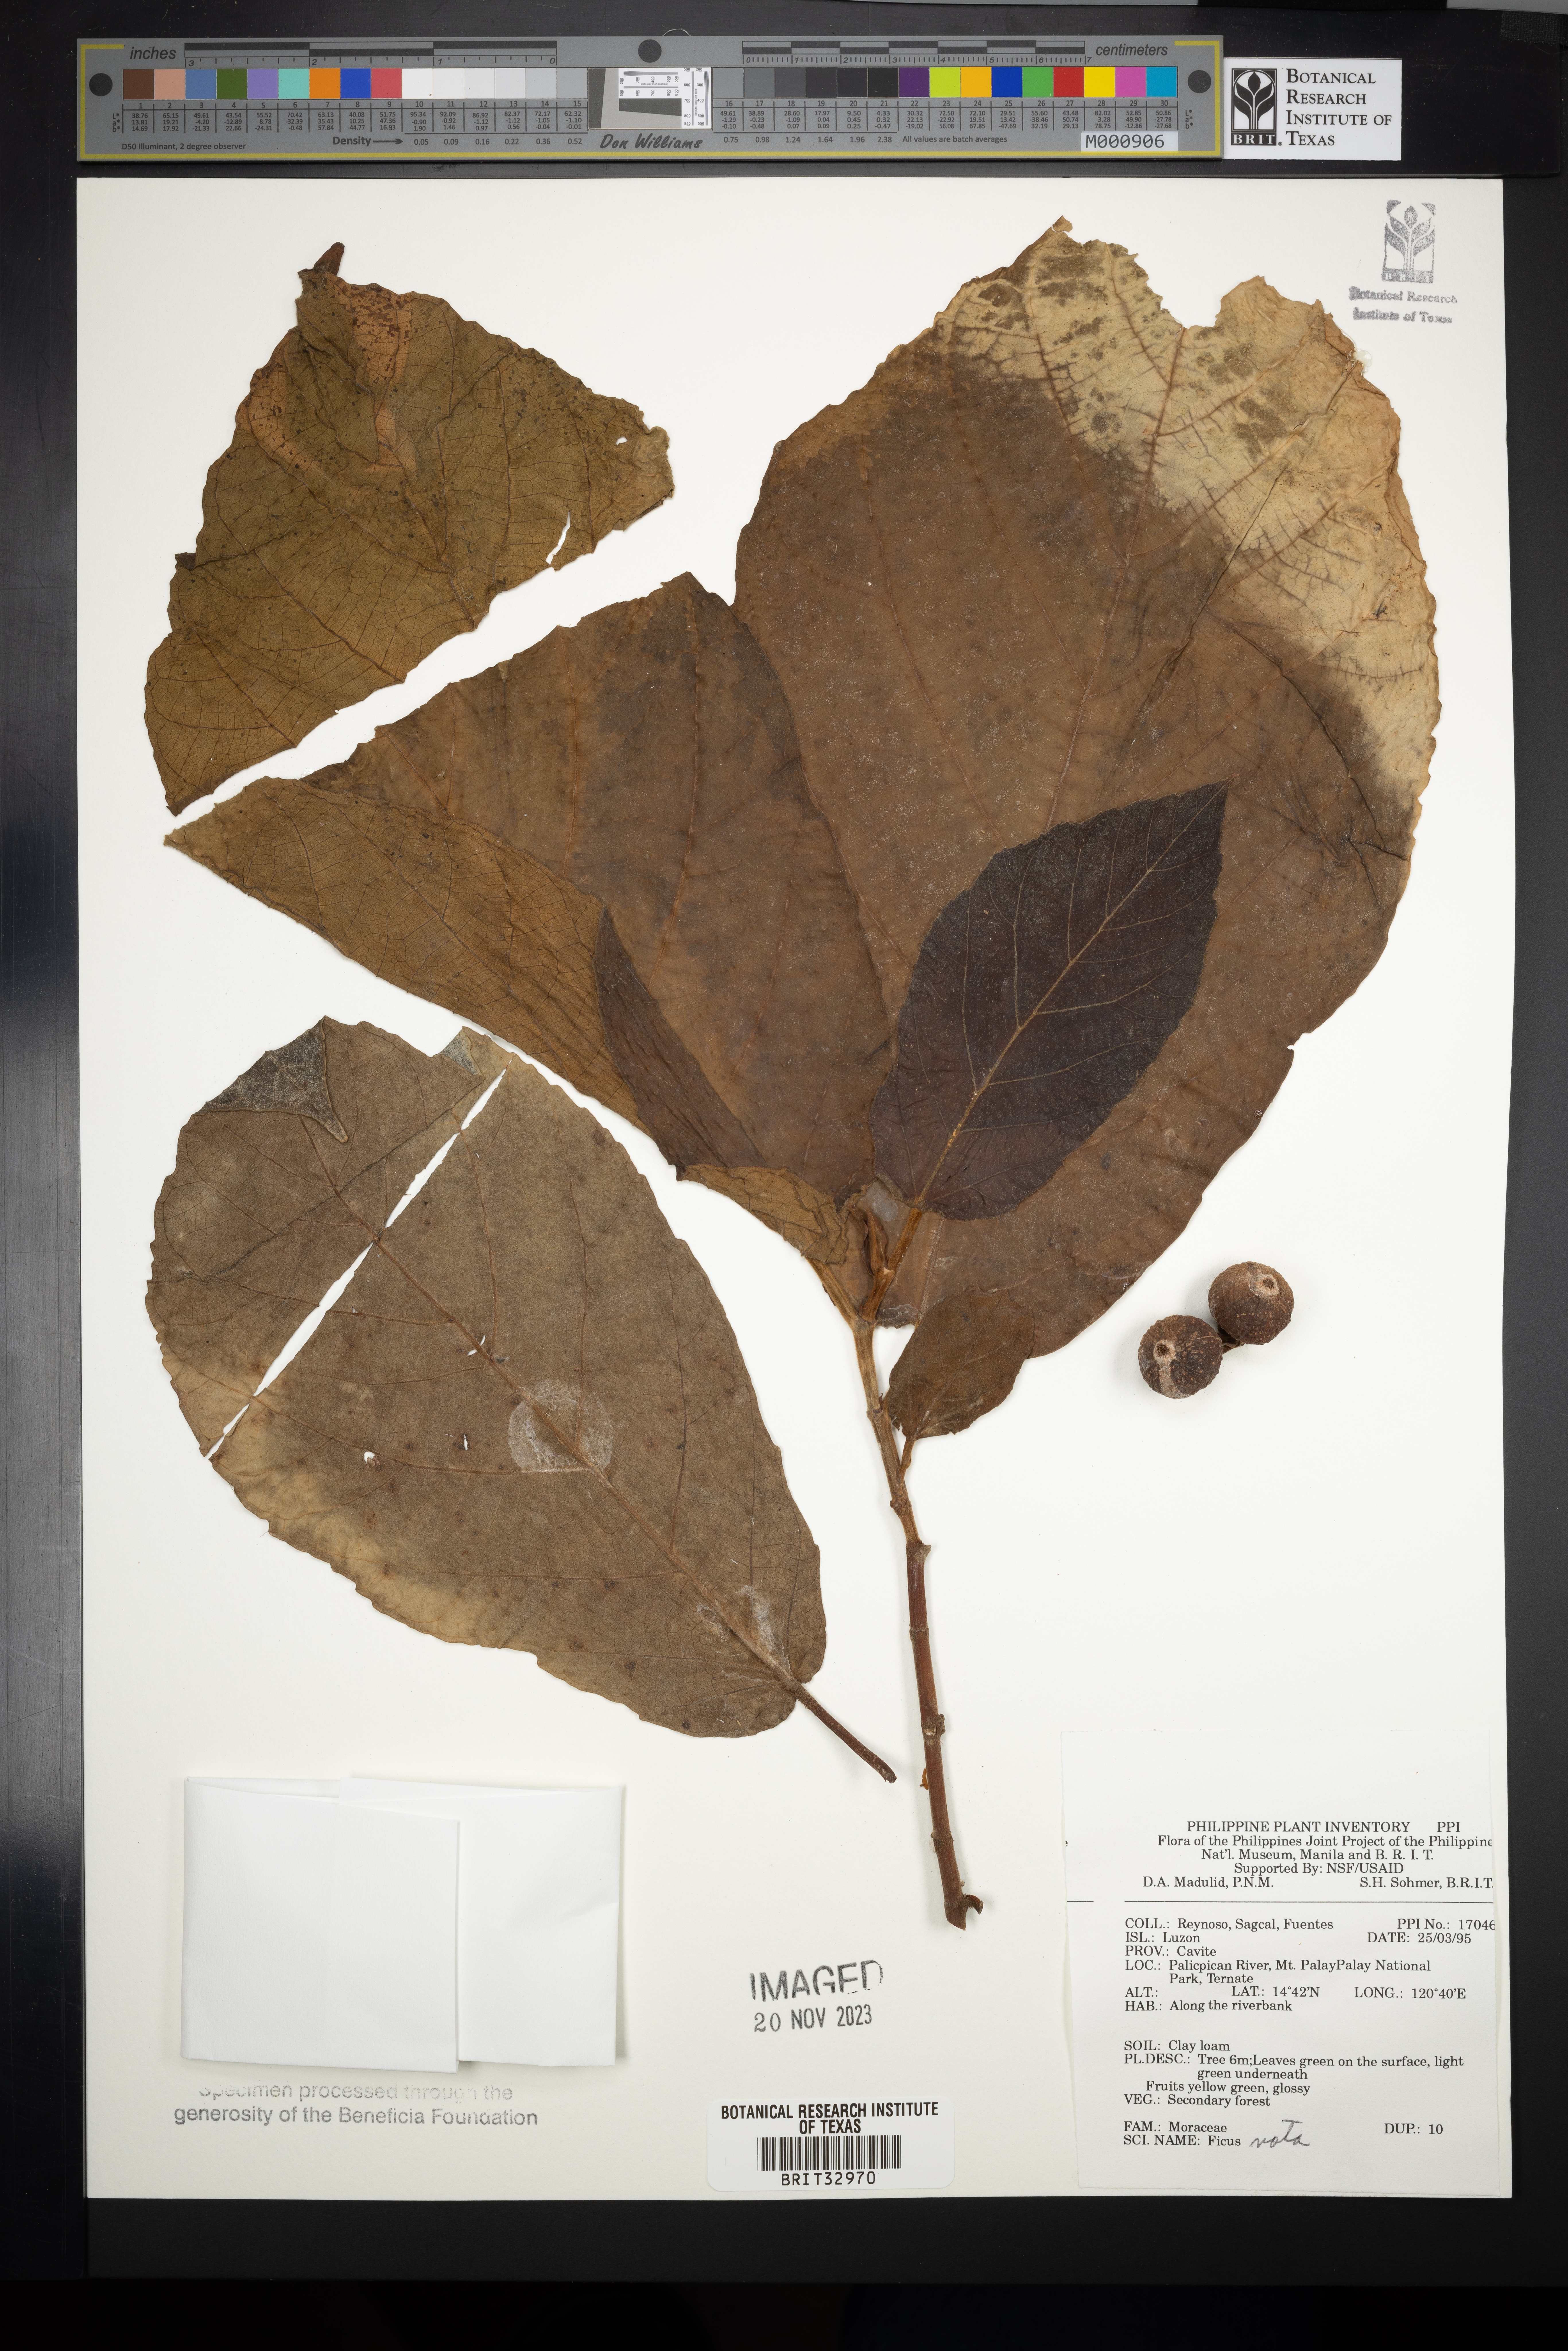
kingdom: Plantae
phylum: Tracheophyta
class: Magnoliopsida
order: Rosales
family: Moraceae
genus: Ficus
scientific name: Ficus nota
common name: Tibig
